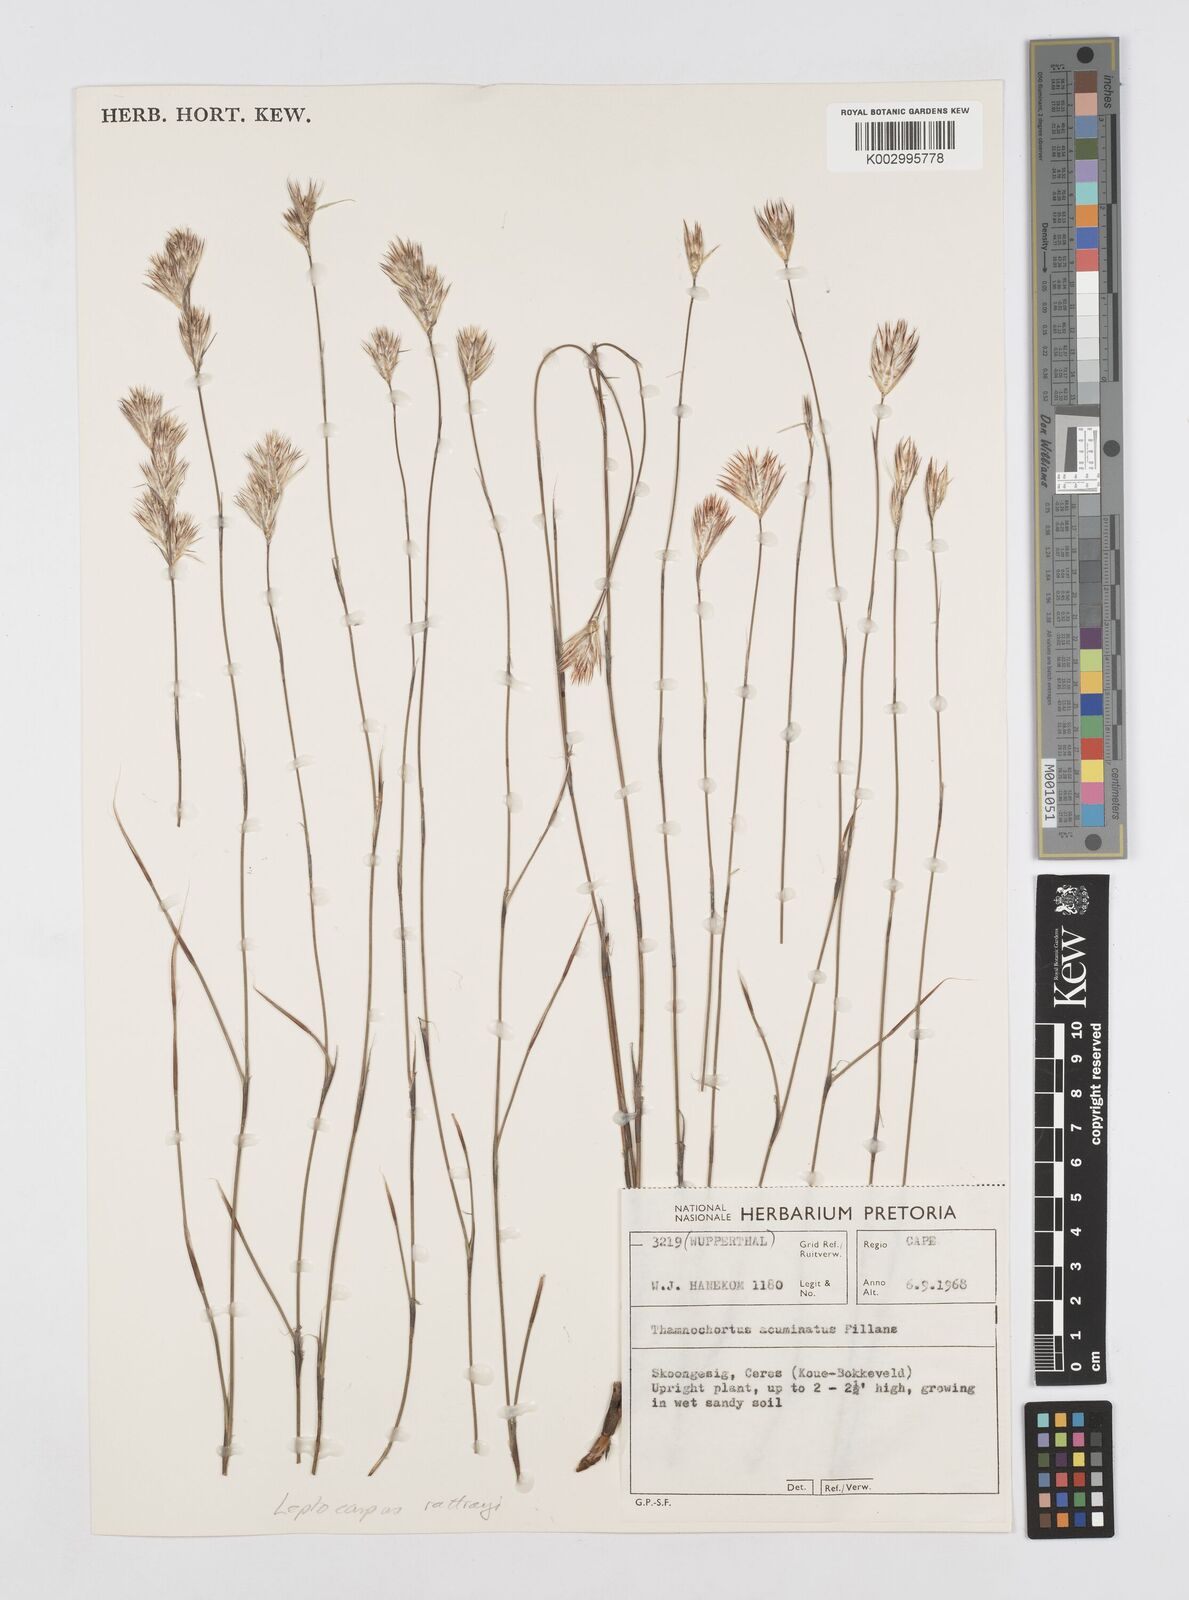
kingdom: Plantae
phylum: Tracheophyta
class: Liliopsida
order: Poales
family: Restionaceae
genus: Hydrophilus
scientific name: Hydrophilus rattrayi
